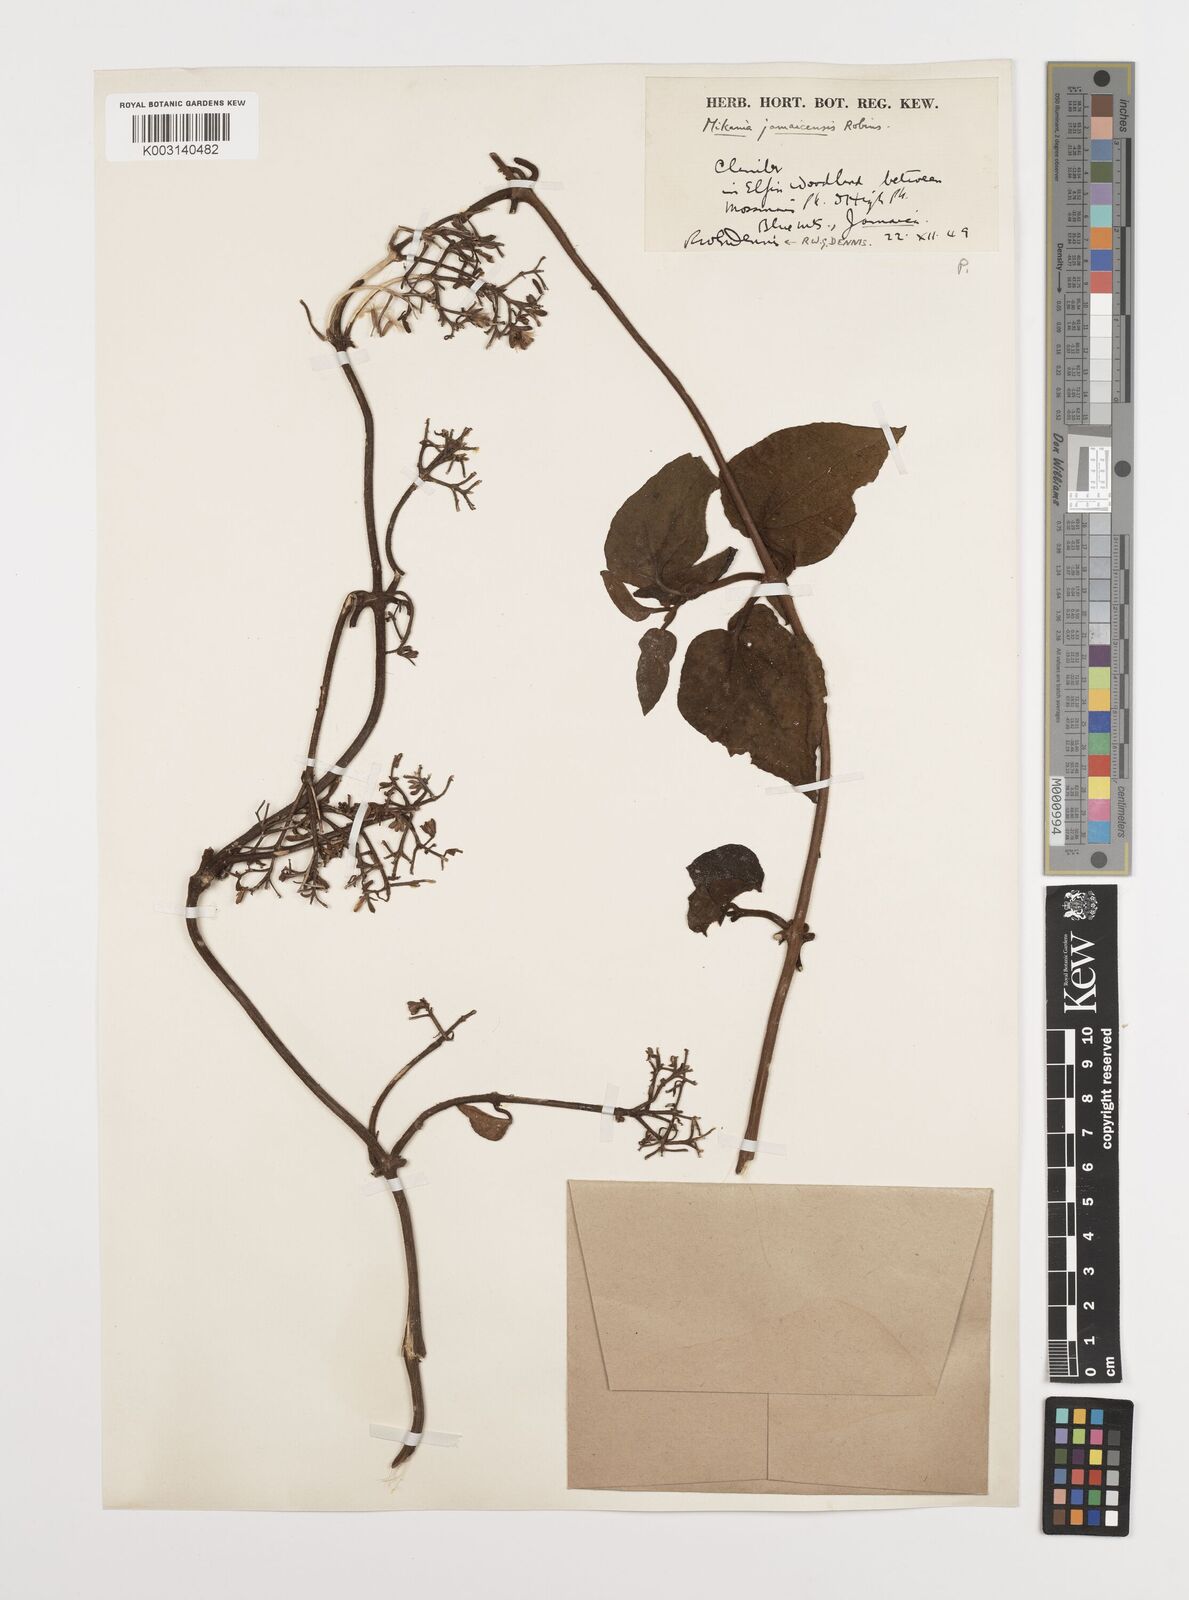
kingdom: Plantae
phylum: Tracheophyta
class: Magnoliopsida
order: Asterales
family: Asteraceae
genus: Mikania
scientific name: Mikania jamaicensis
